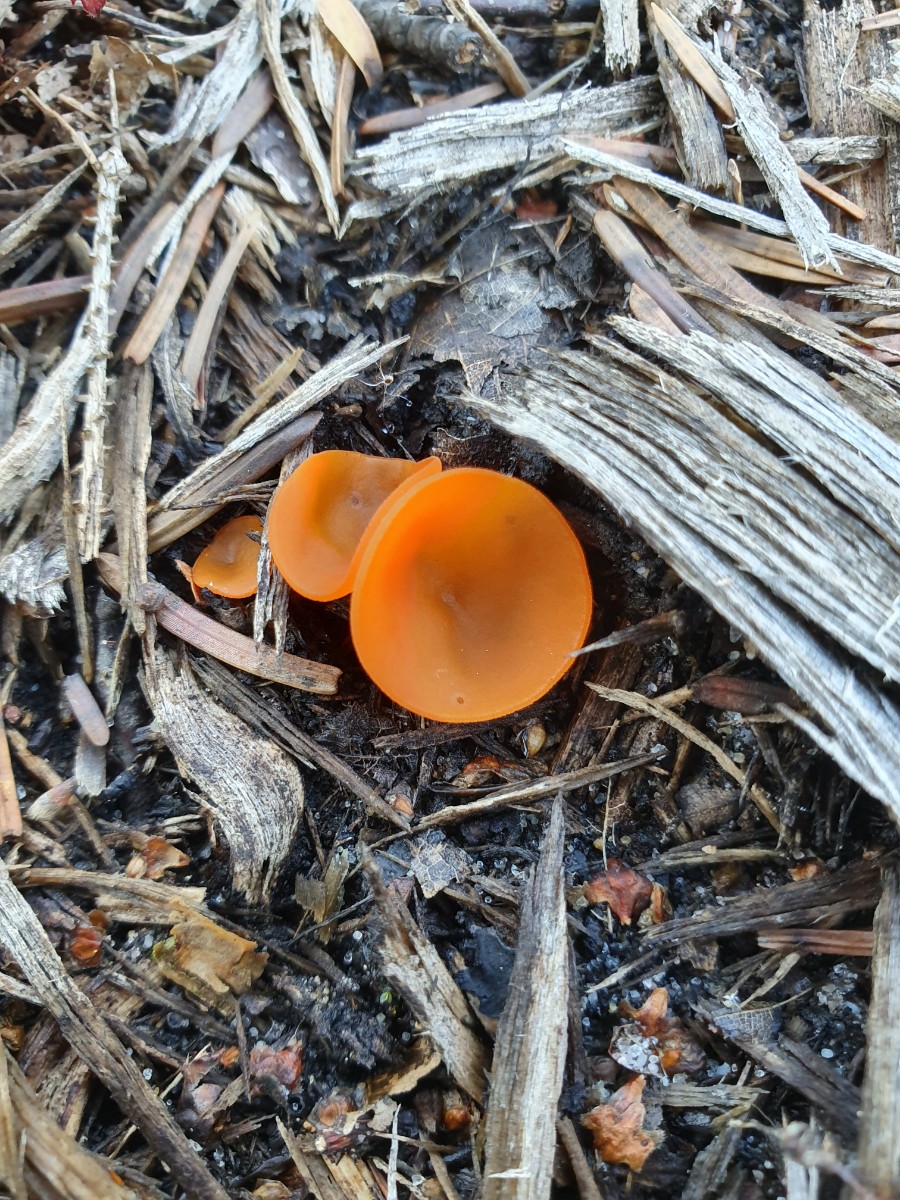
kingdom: Fungi
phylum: Ascomycota
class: Pezizomycetes
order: Pezizales
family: Pyronemataceae
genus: Aleuria
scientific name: Aleuria aurantia
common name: almindelig orangebæger
